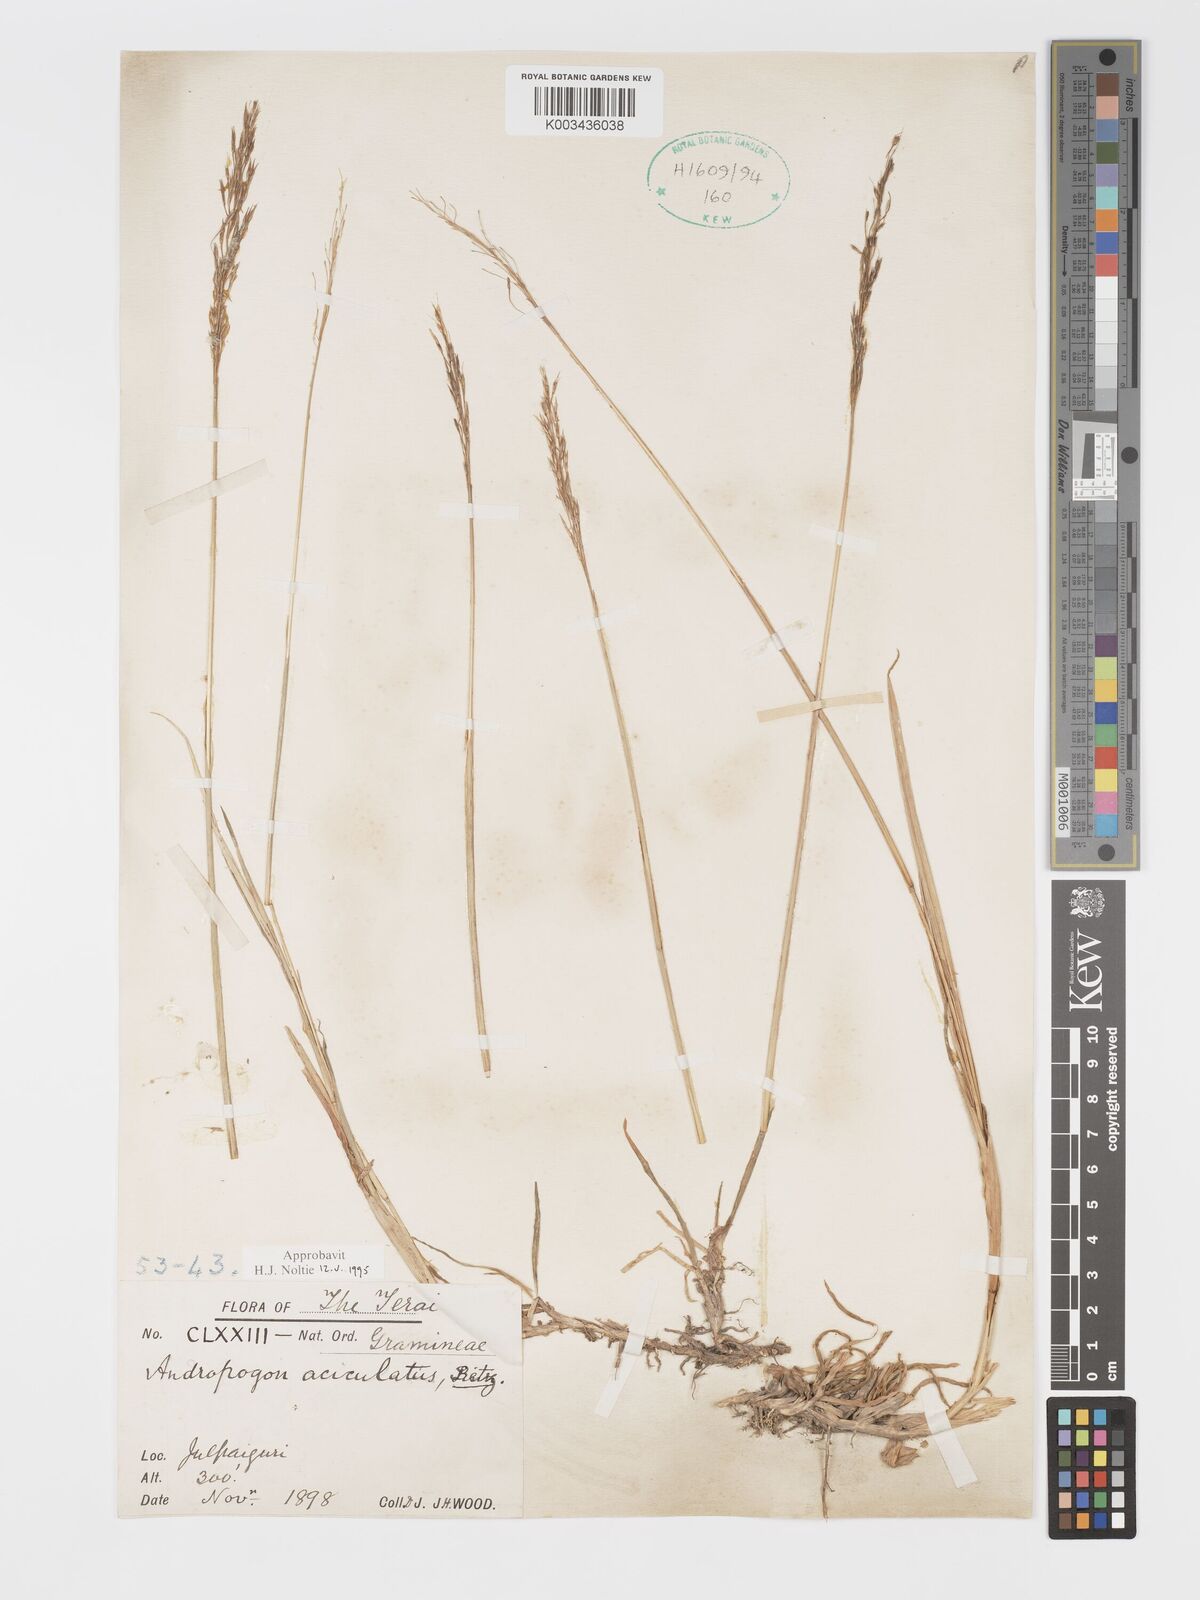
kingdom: Plantae
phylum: Tracheophyta
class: Liliopsida
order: Poales
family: Poaceae
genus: Chrysopogon
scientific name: Chrysopogon aciculatus
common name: Pilipiliula
